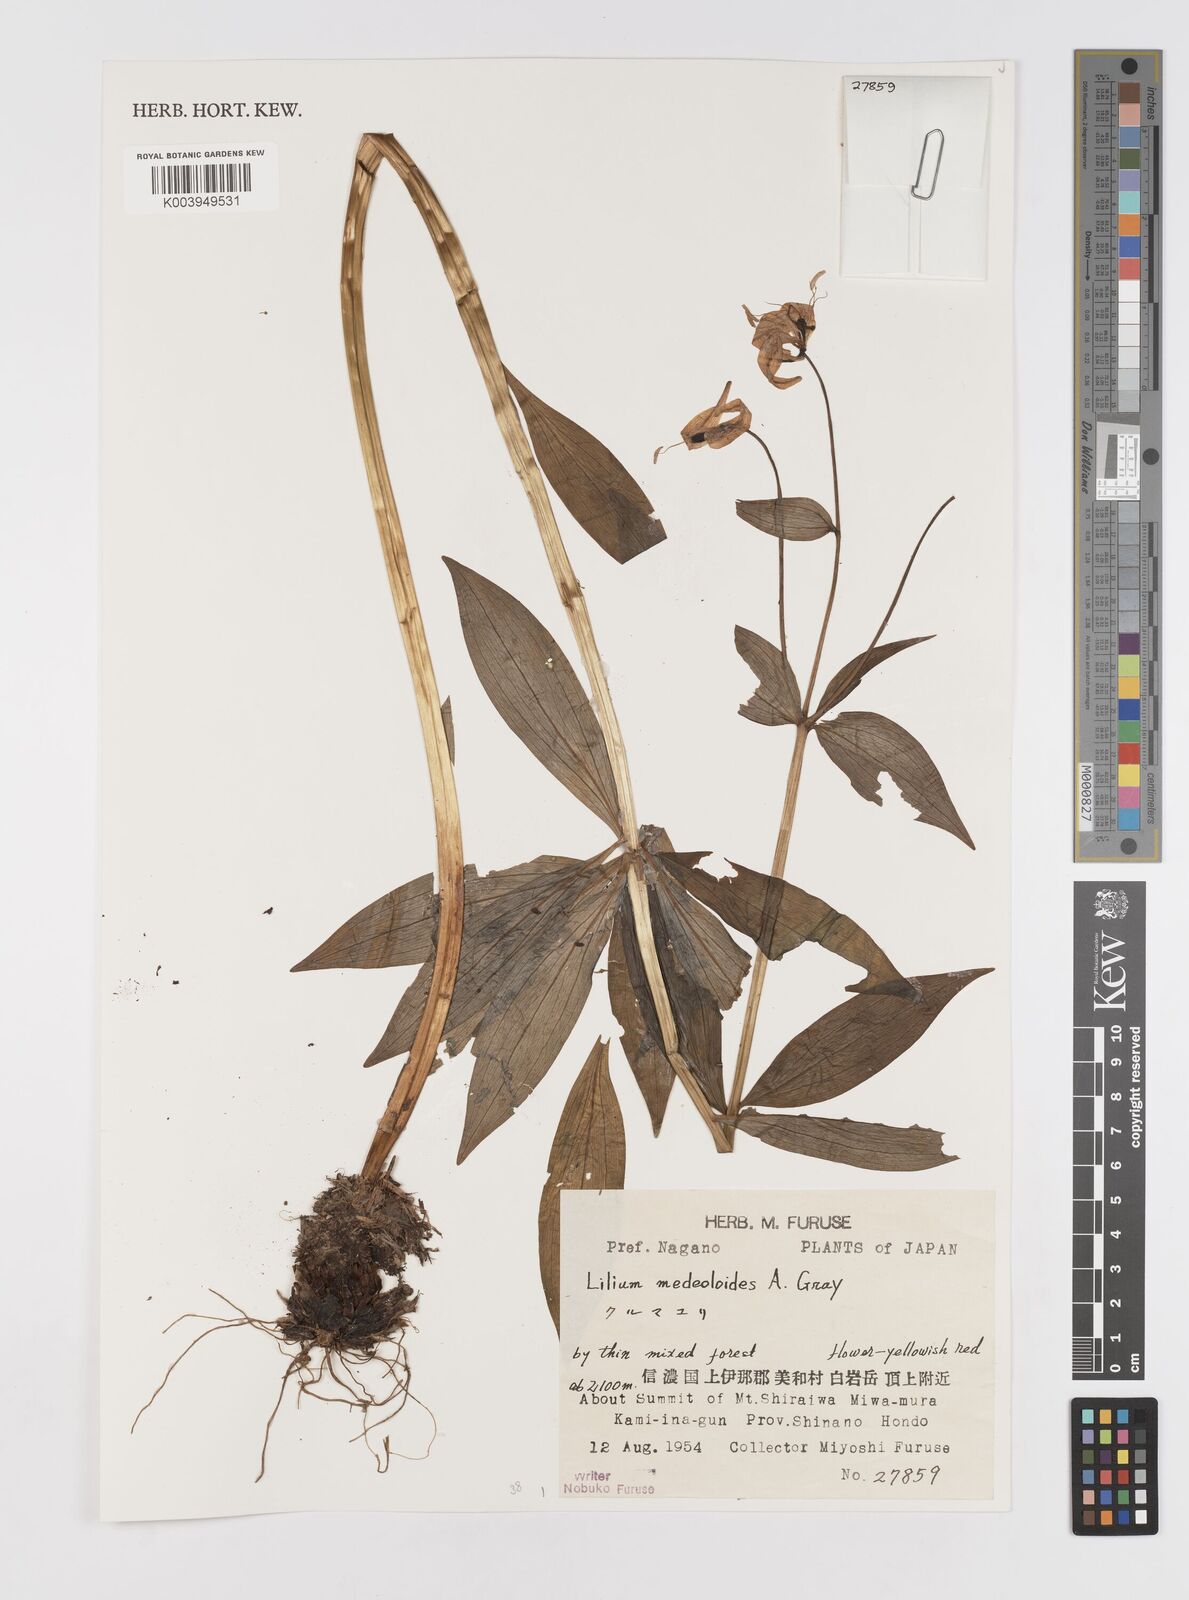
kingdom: Plantae
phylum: Tracheophyta
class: Liliopsida
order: Liliales
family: Liliaceae
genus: Lilium
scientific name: Lilium medeoloides
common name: Wheel lily
